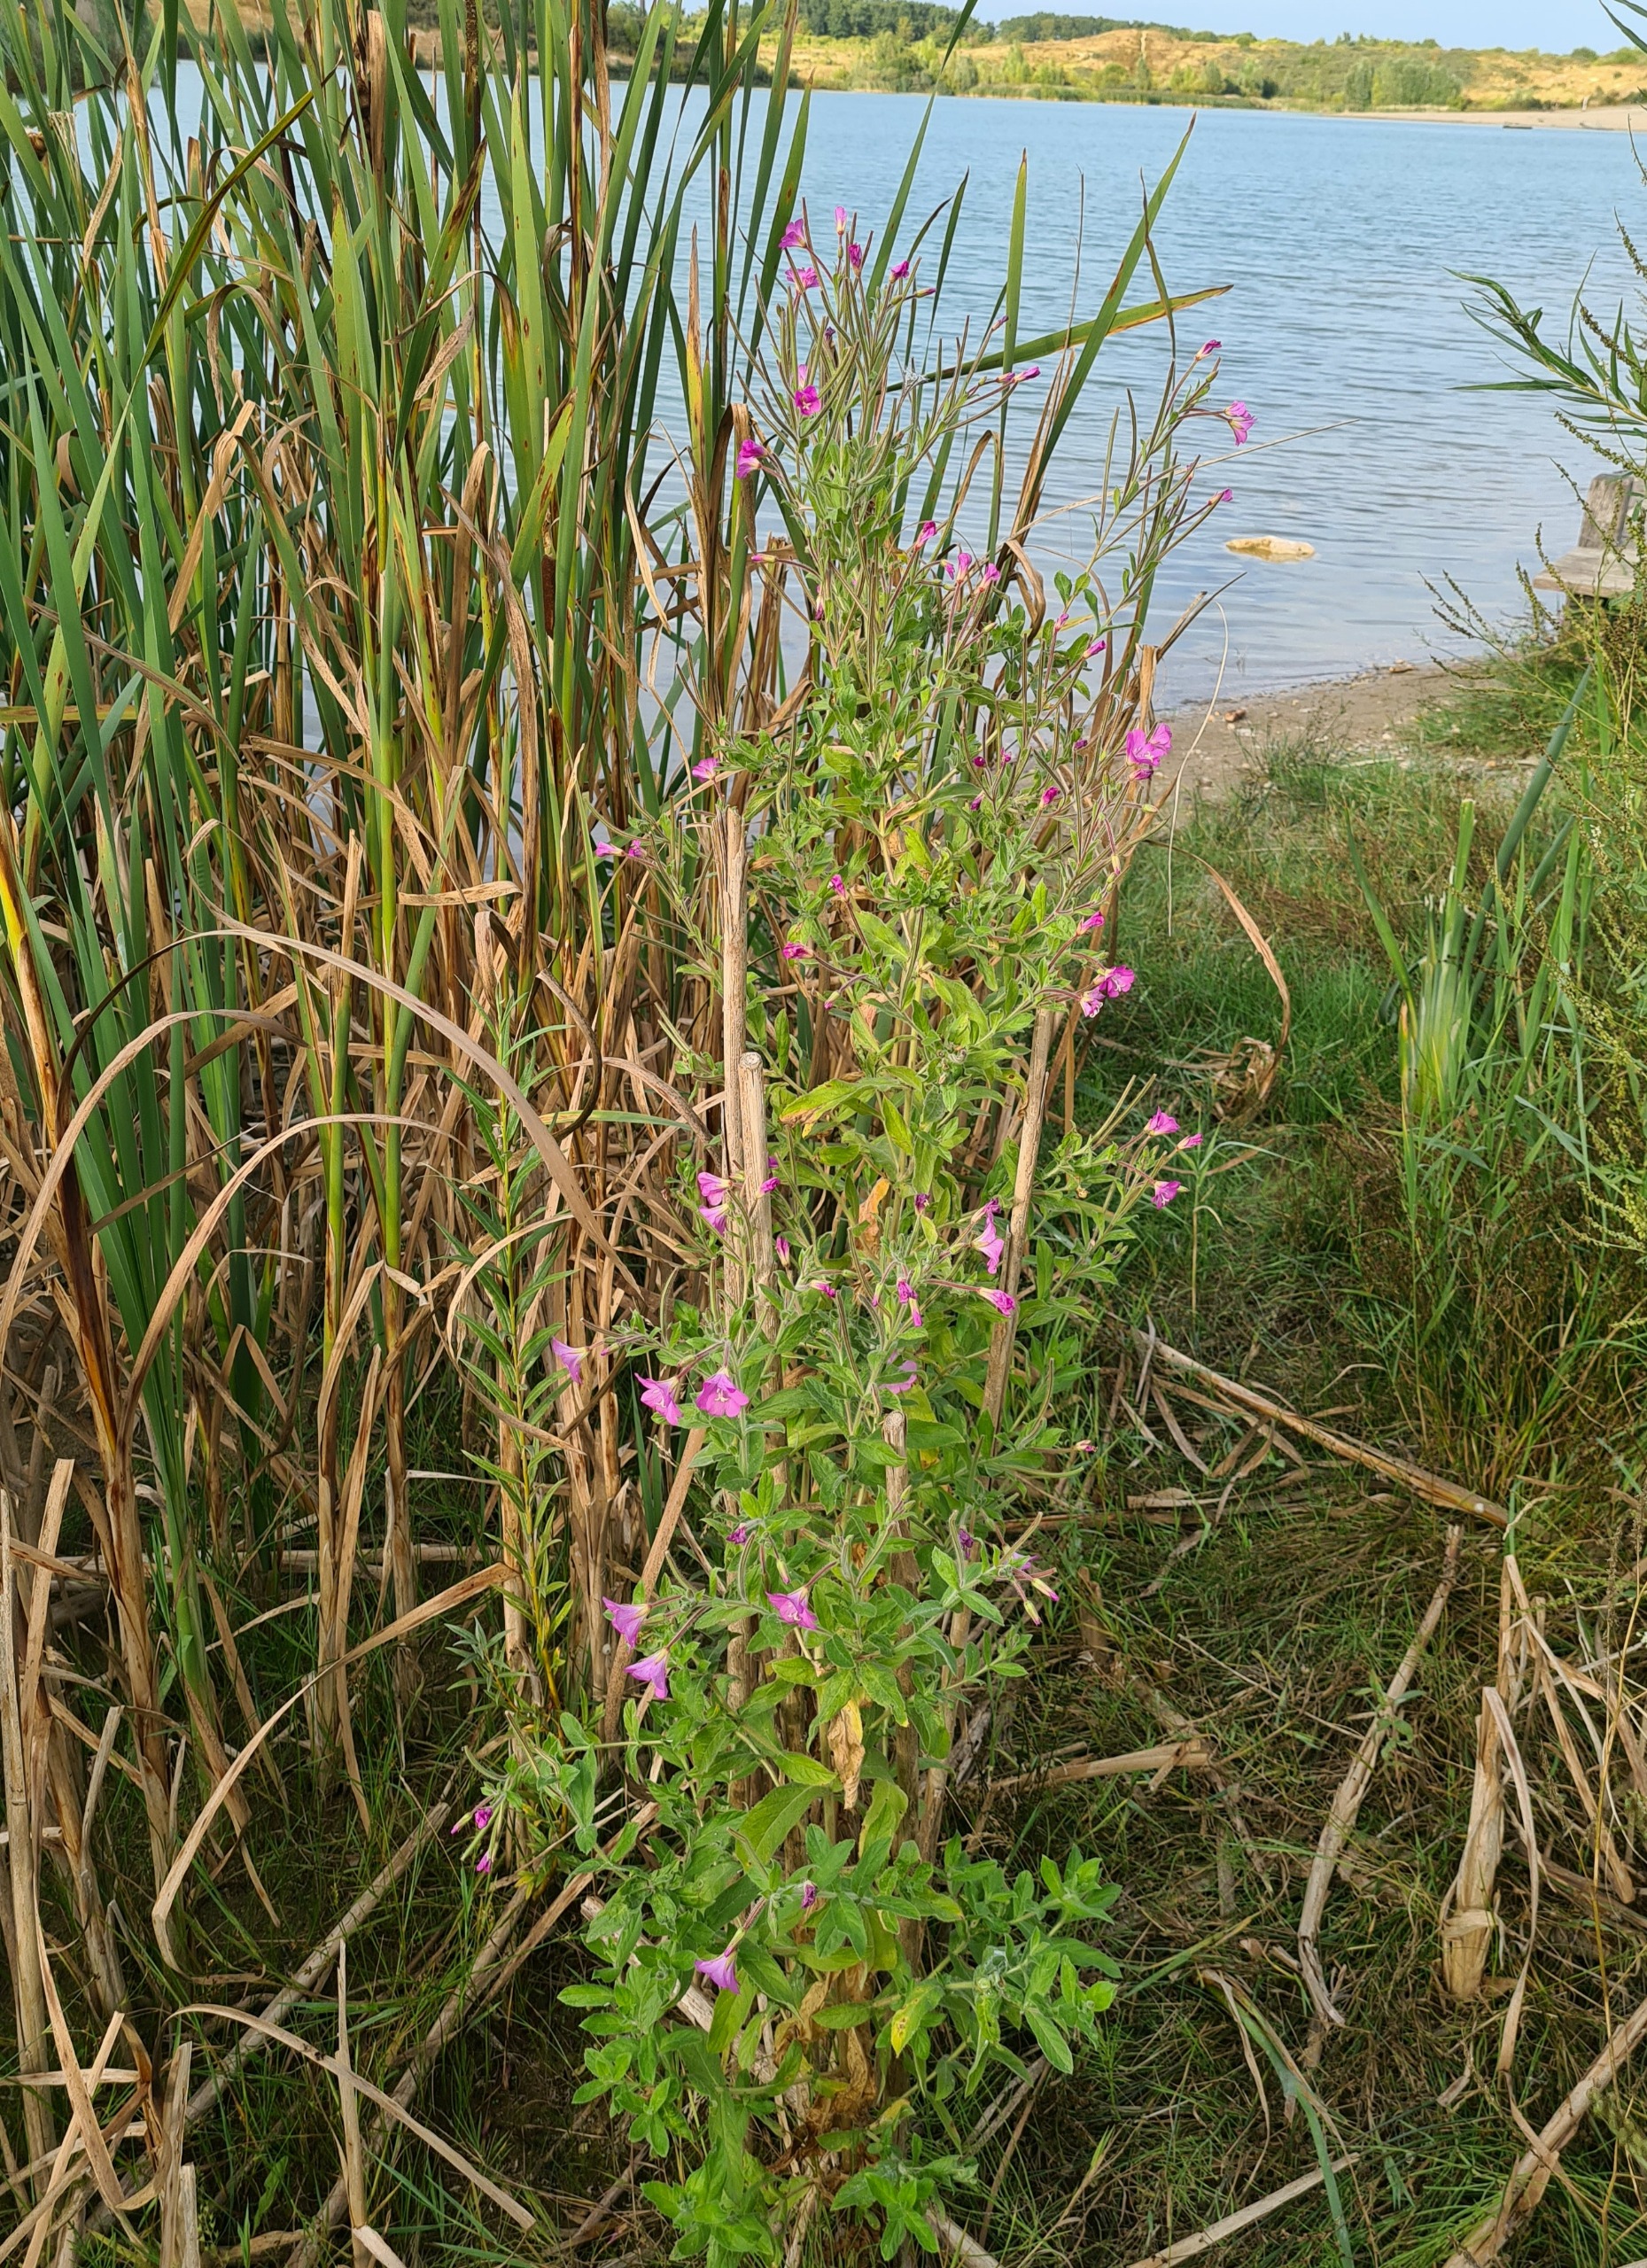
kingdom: Plantae
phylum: Tracheophyta
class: Magnoliopsida
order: Myrtales
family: Onagraceae
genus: Epilobium
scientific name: Epilobium hirsutum
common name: Lådden dueurt
